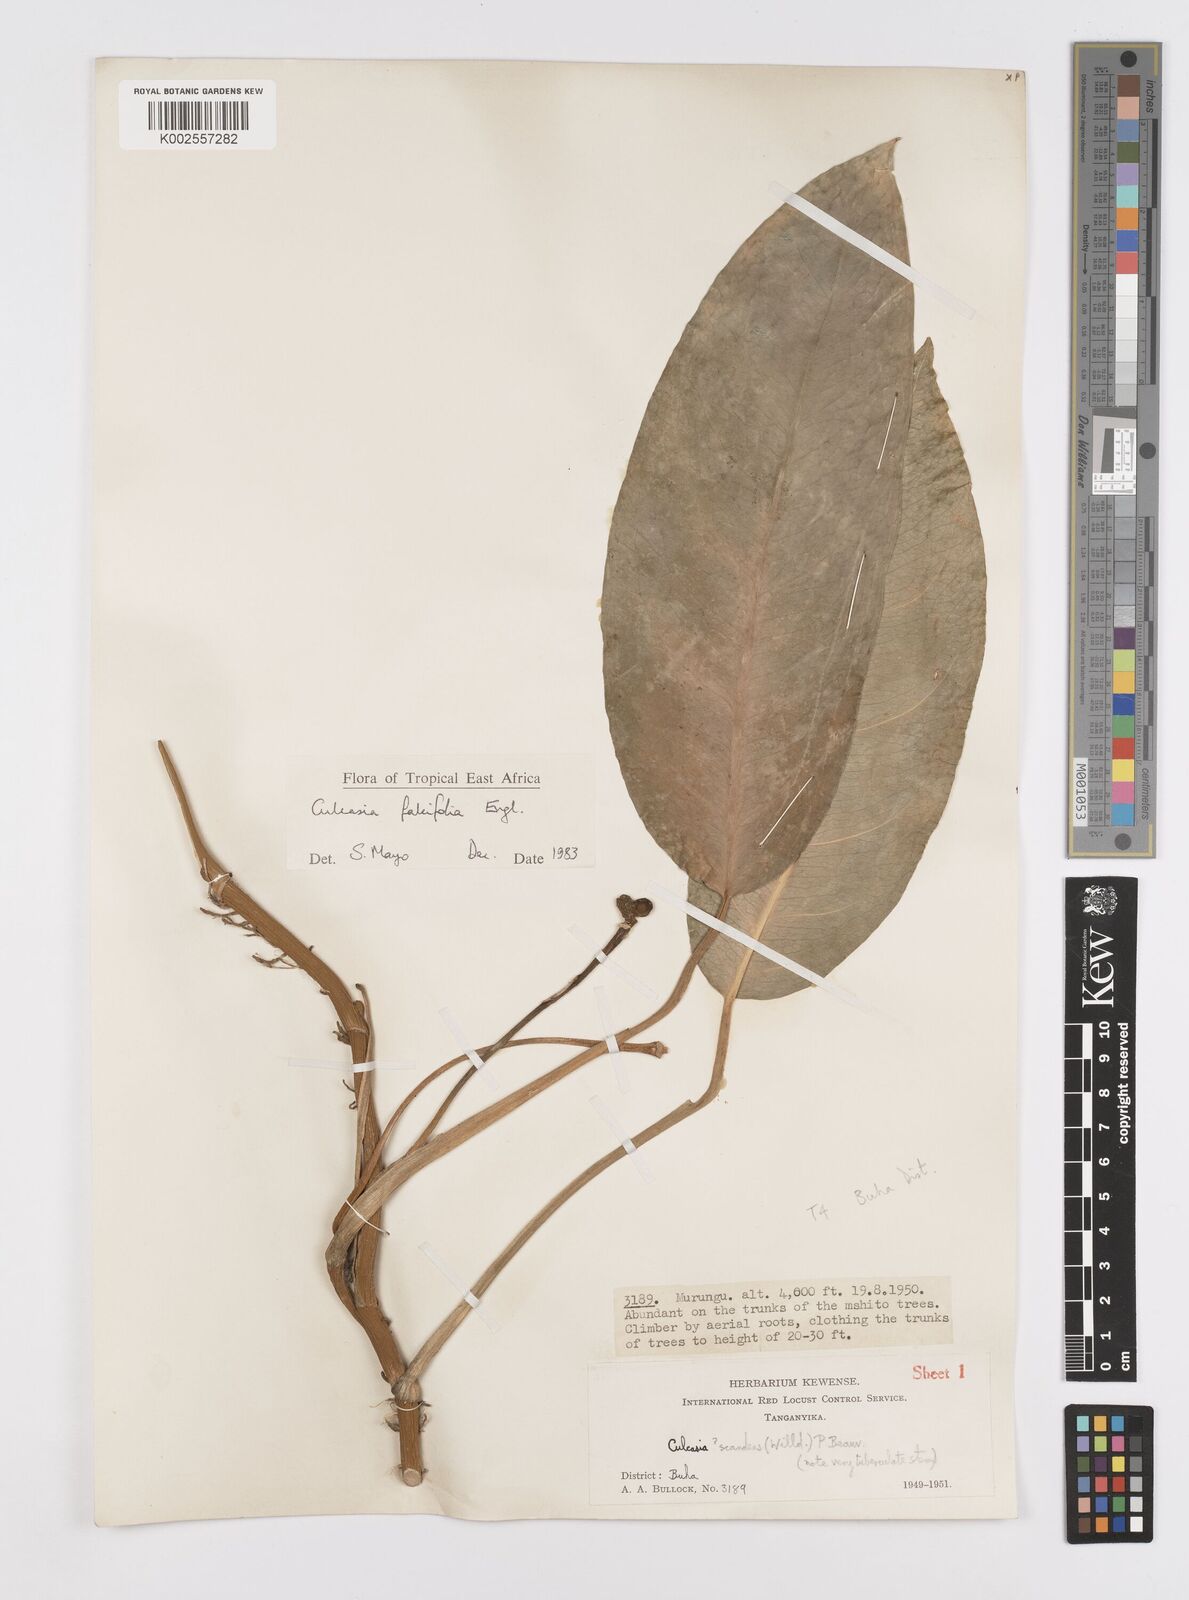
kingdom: Plantae
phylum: Tracheophyta
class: Liliopsida
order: Alismatales
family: Araceae
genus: Culcasia
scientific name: Culcasia falcifolia
